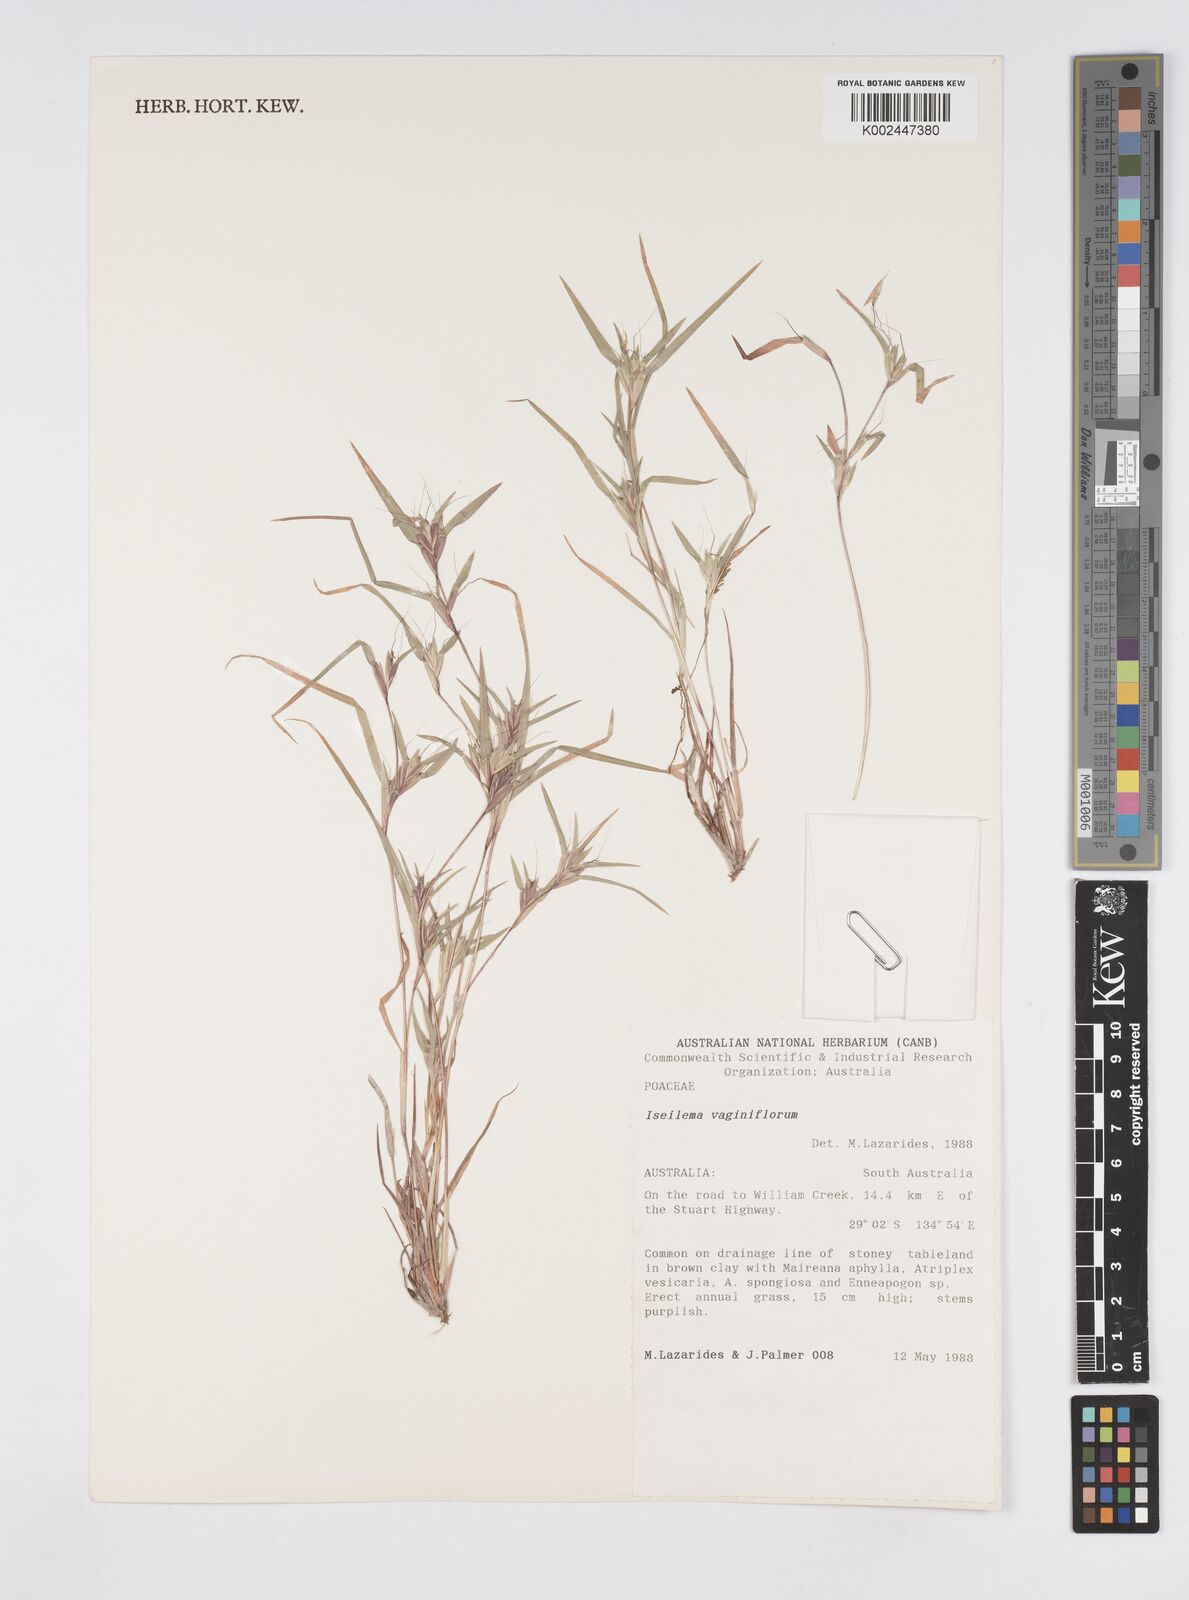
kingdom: Plantae
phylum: Tracheophyta
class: Liliopsida
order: Poales
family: Poaceae
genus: Iseilema
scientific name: Iseilema vaginiflorum
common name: Red flinders grass
